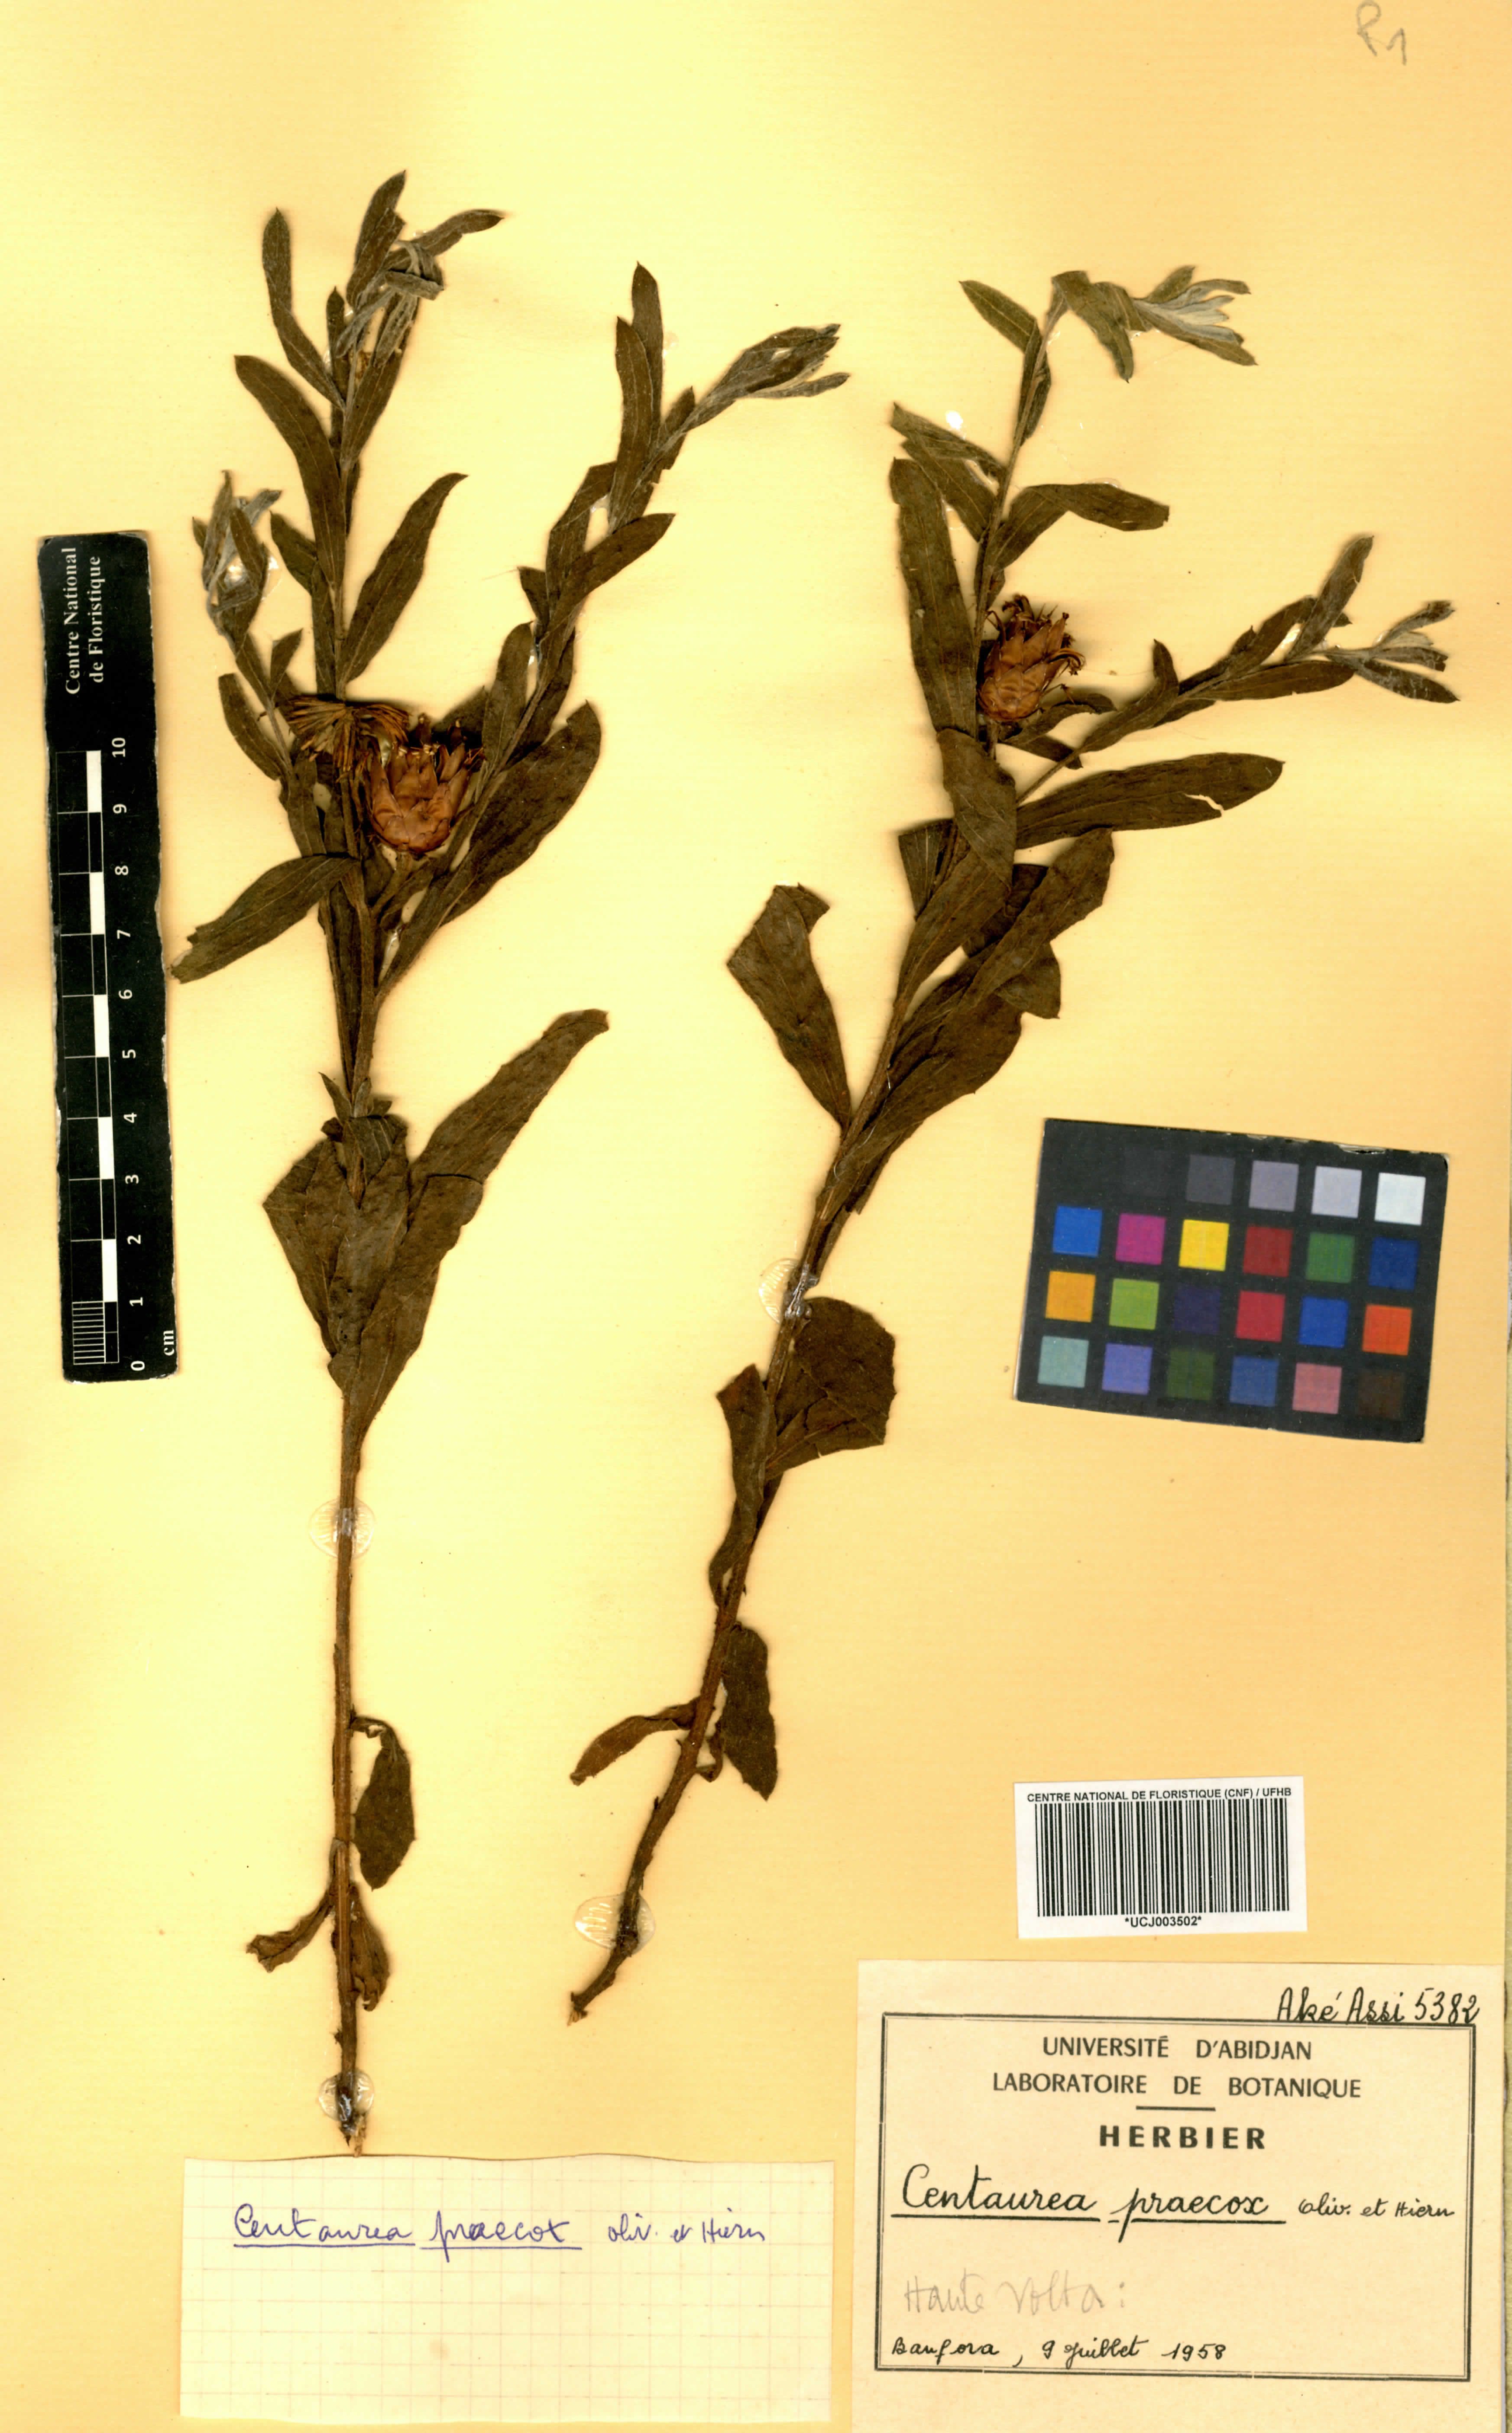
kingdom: Plantae
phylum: Tracheophyta
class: Magnoliopsida
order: Asterales
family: Asteraceae
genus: Centaurea
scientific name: Centaurea praecox
